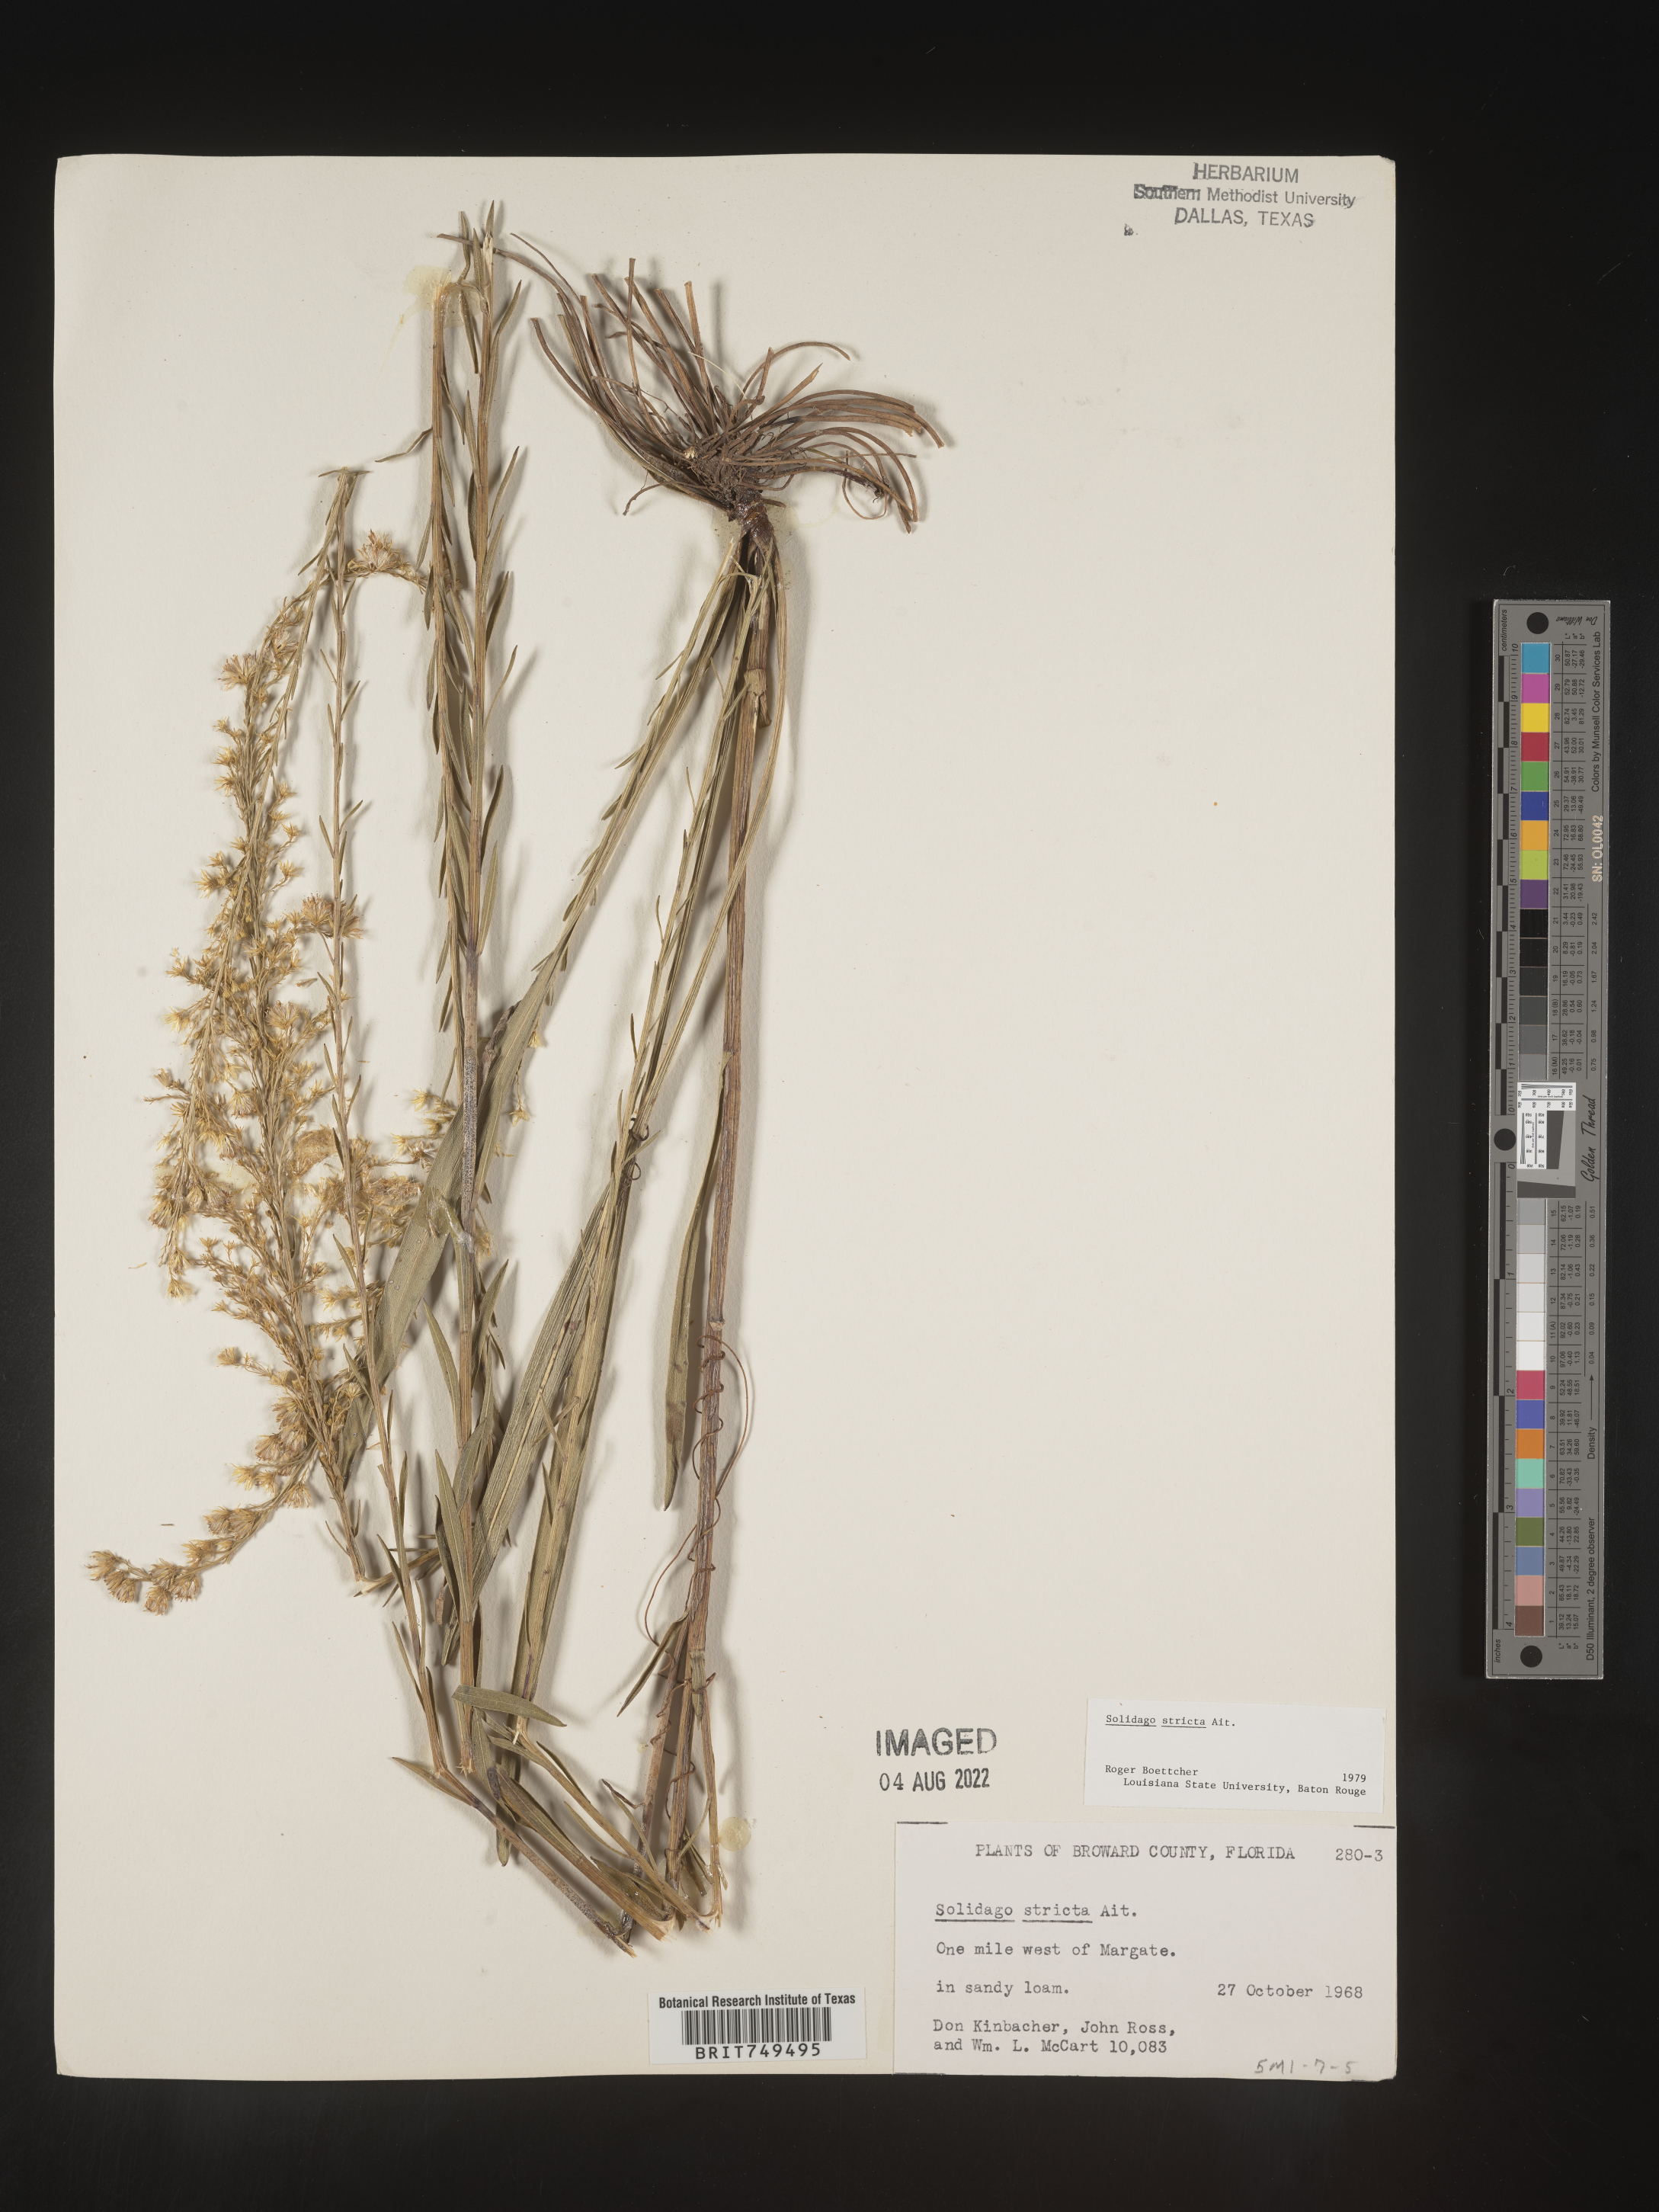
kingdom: Plantae
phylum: Tracheophyta
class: Magnoliopsida
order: Asterales
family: Asteraceae
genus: Solidago
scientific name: Solidago stricta
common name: Pine barren bog goldenrod
